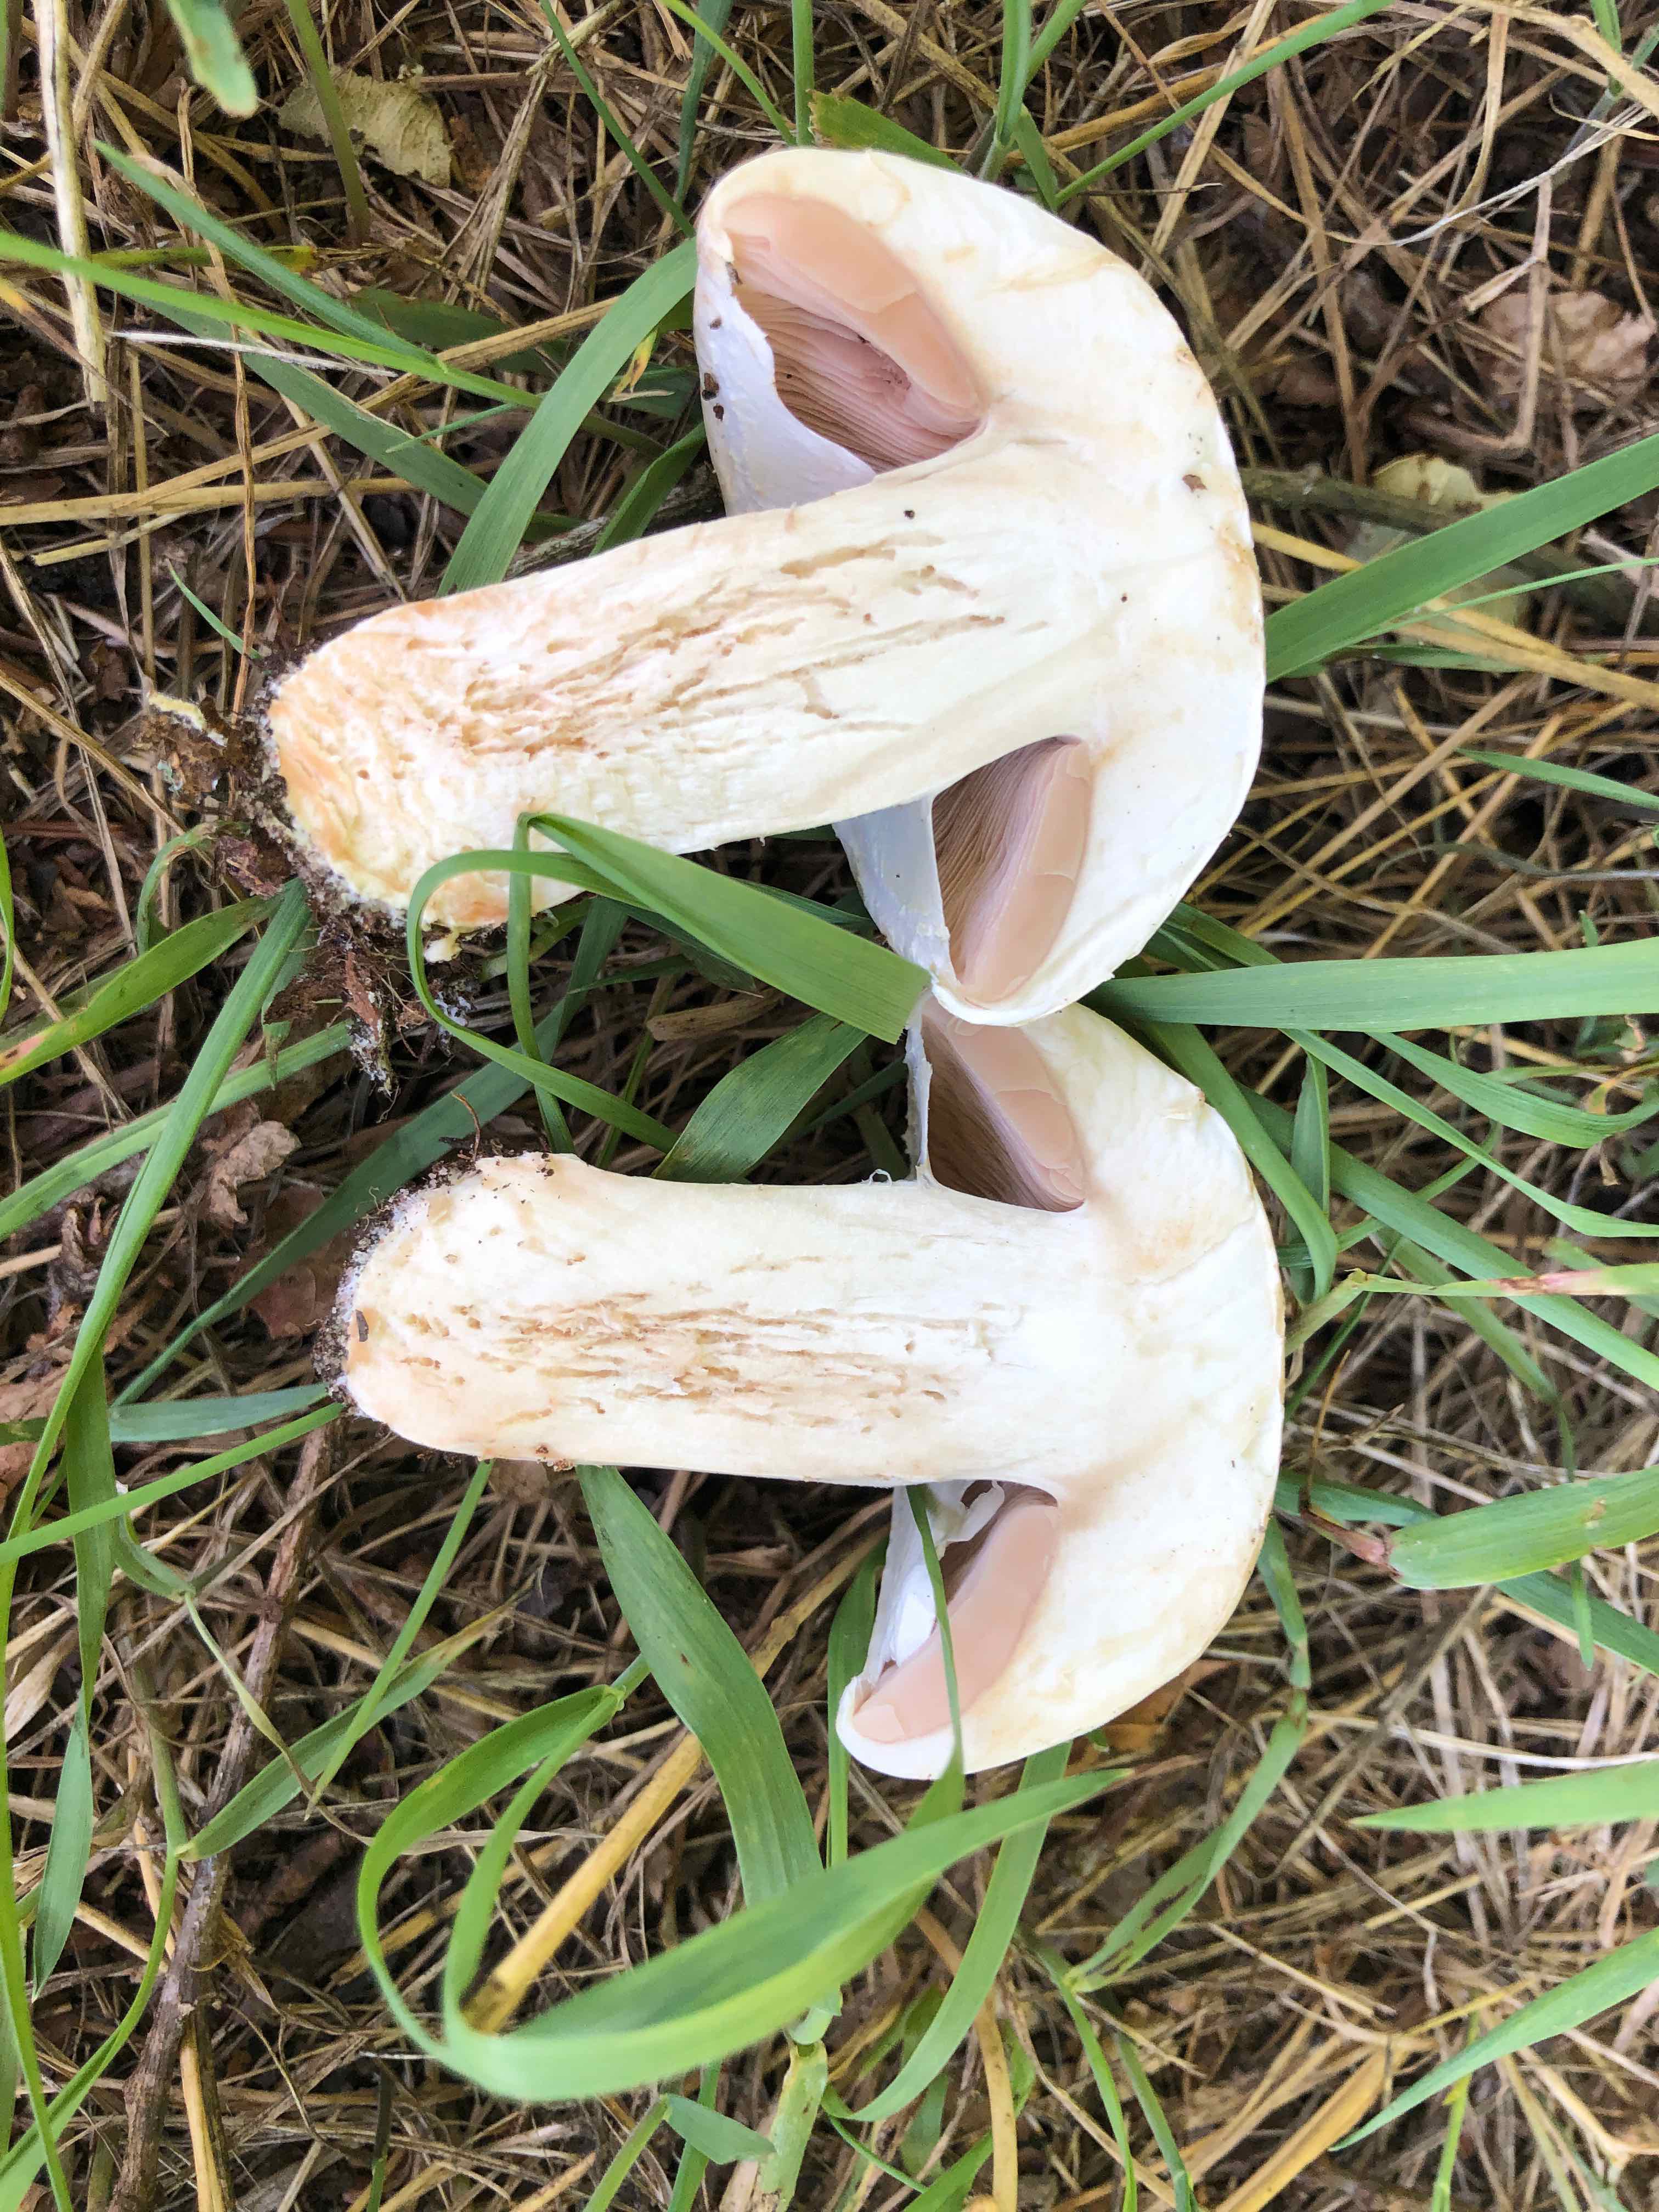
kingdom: Fungi
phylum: Basidiomycota
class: Agaricomycetes
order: Agaricales
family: Agaricaceae
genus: Agaricus
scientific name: Agaricus
